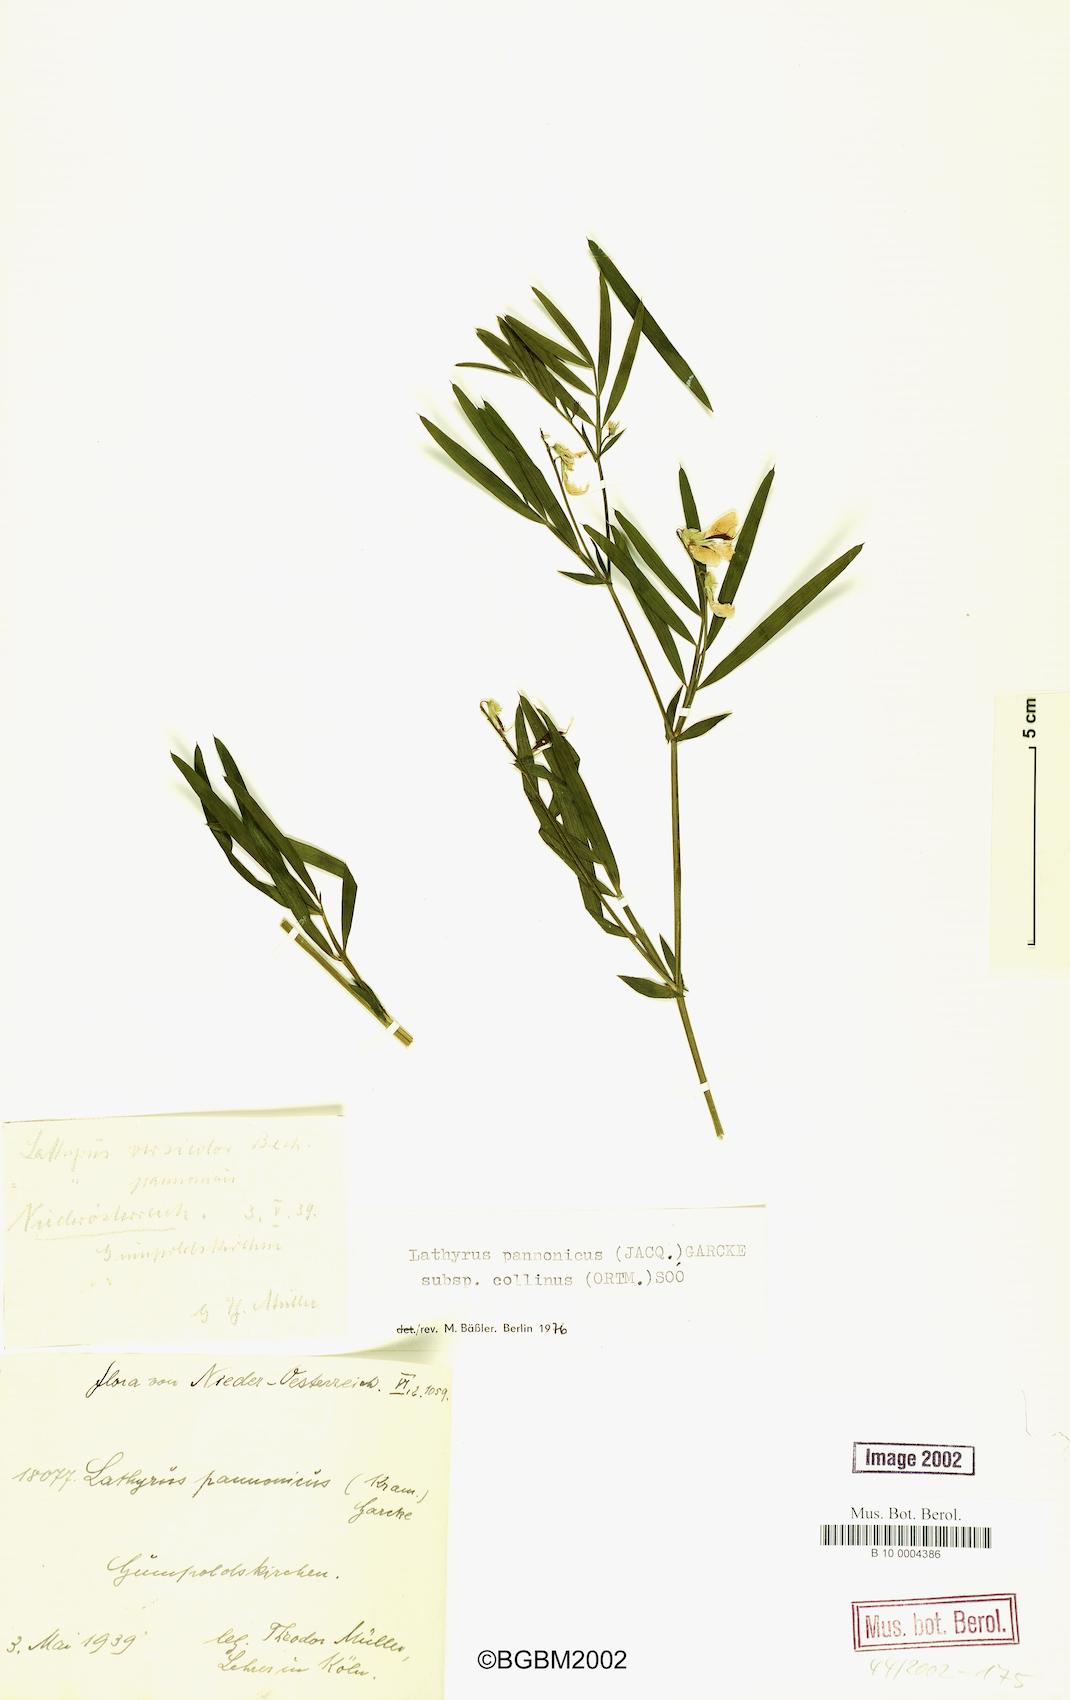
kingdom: Plantae
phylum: Tracheophyta
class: Magnoliopsida
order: Fabales
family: Fabaceae
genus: Lathyrus
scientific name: Lathyrus pannonicus
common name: Pea
